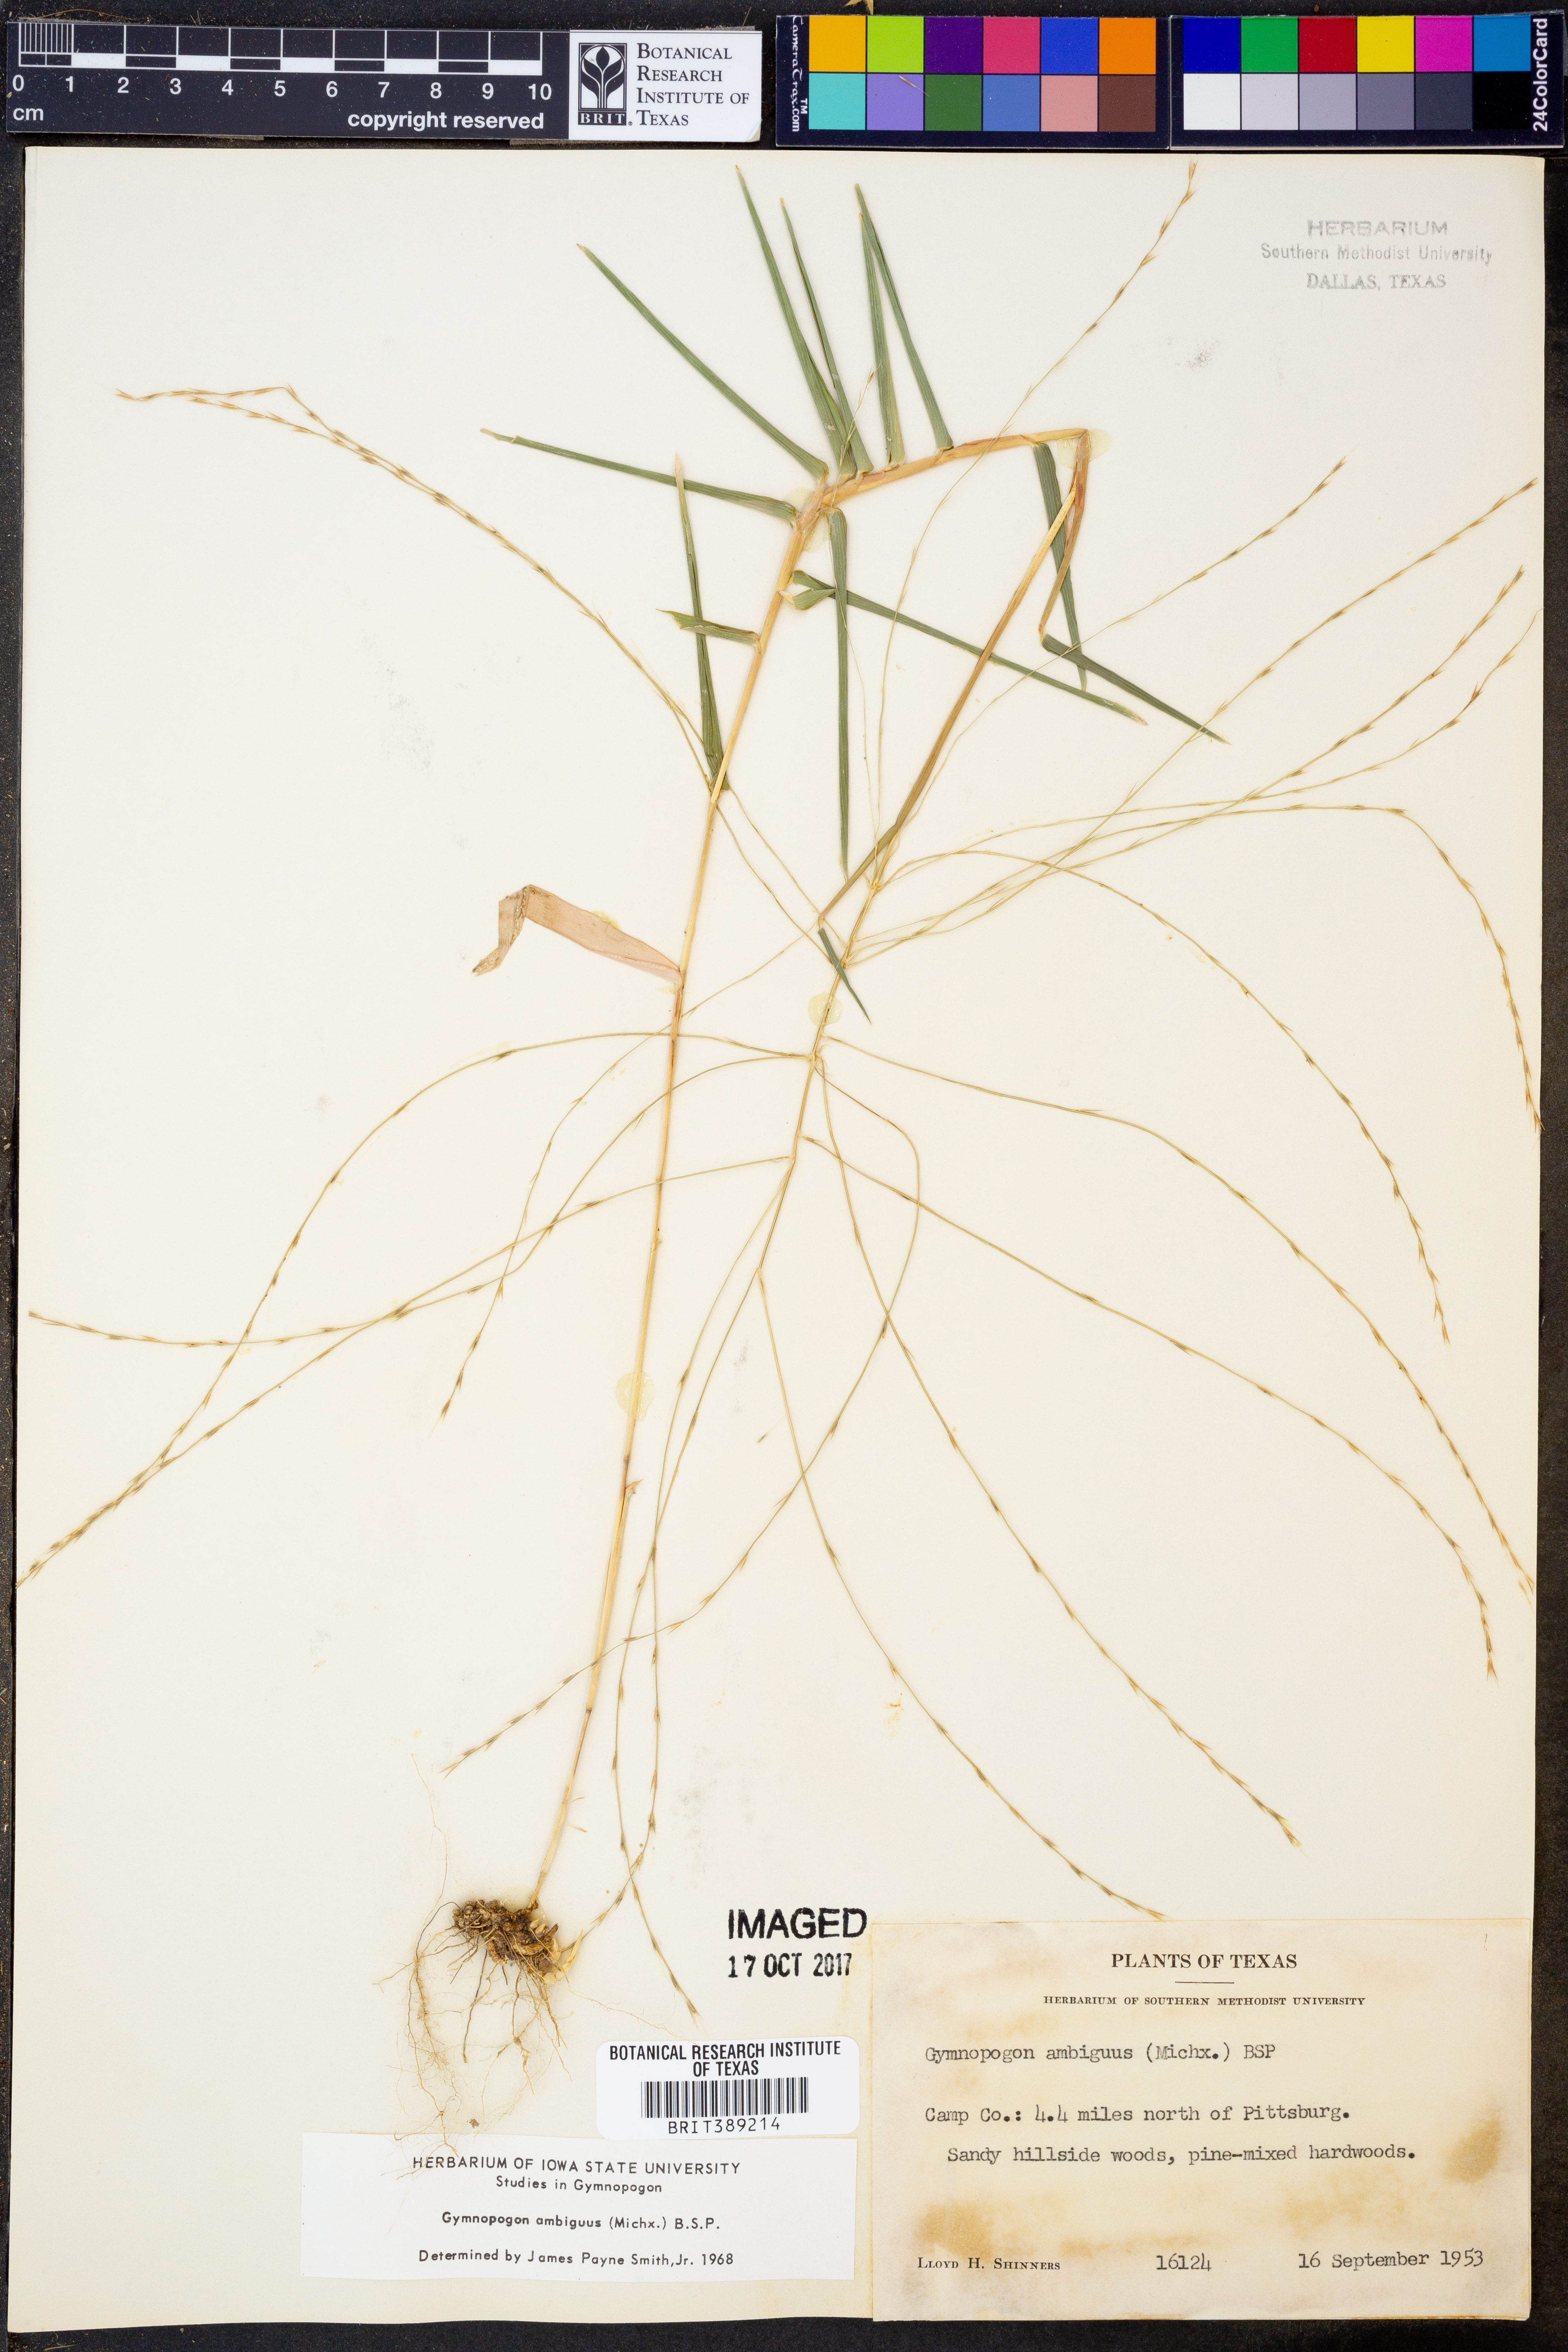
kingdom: Plantae
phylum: Tracheophyta
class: Liliopsida
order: Poales
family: Poaceae
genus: Gymnopogon
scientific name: Gymnopogon ambiguus
